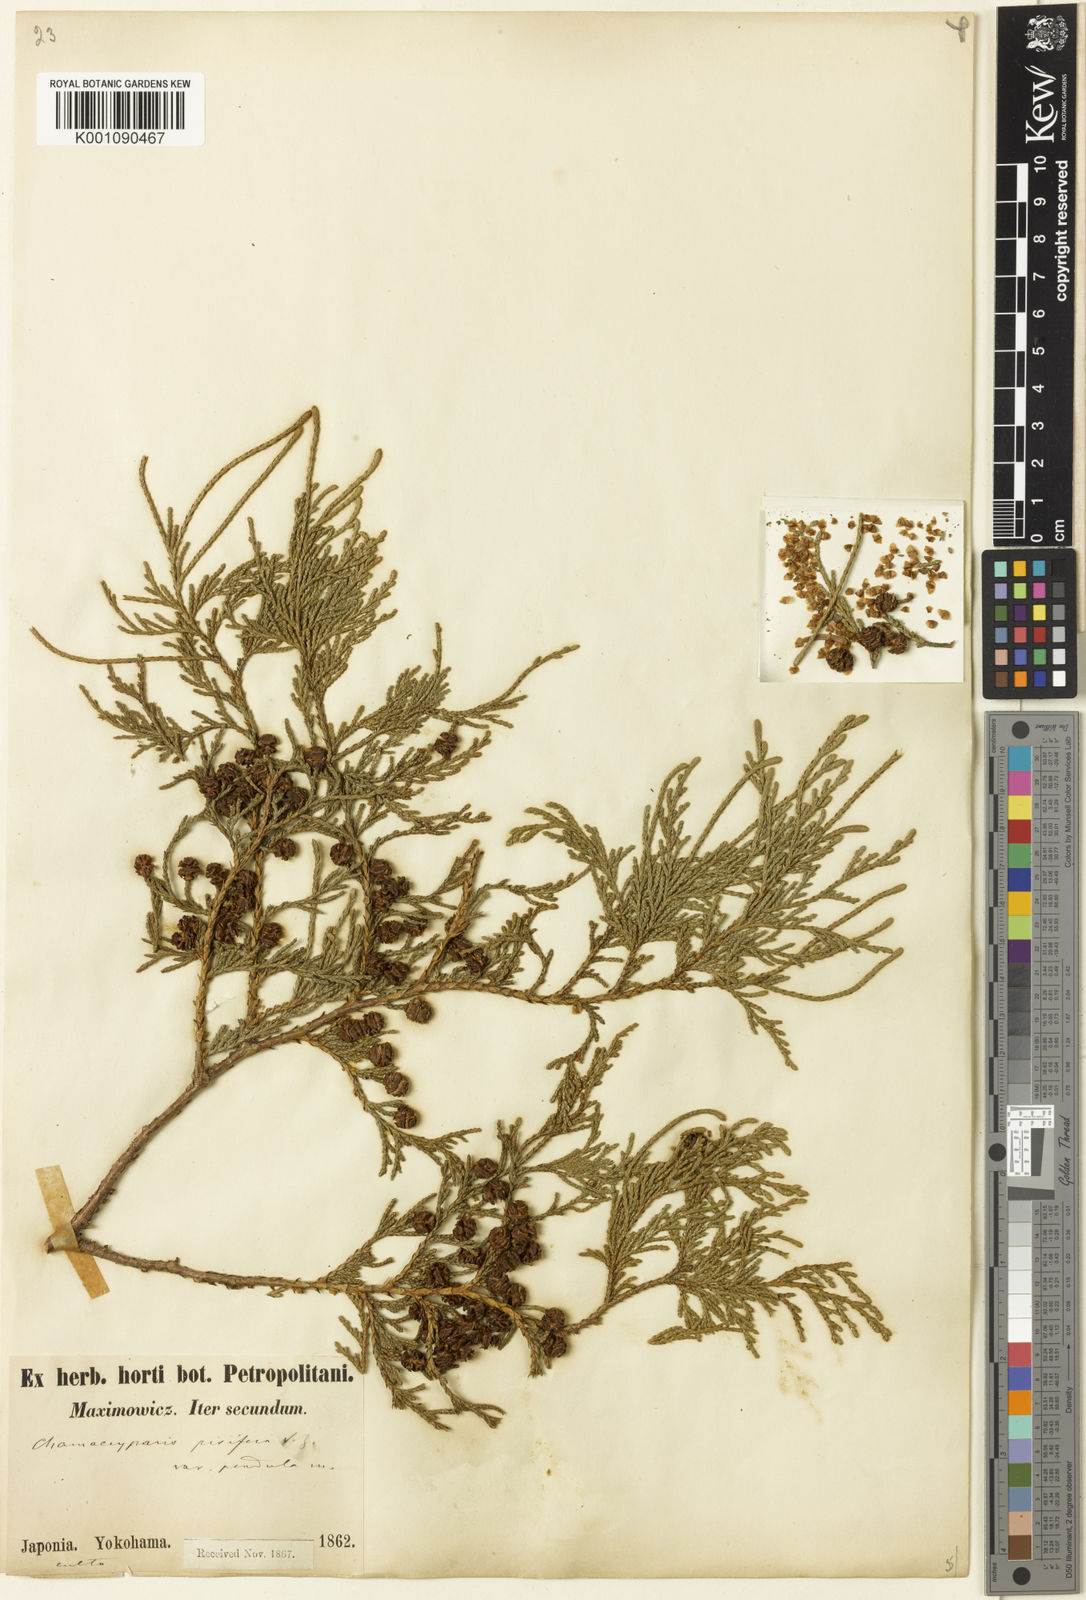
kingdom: Plantae
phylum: Tracheophyta
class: Pinopsida
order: Pinales
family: Cupressaceae
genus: Chamaecyparis
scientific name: Chamaecyparis pisifera
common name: Sawara cypress
